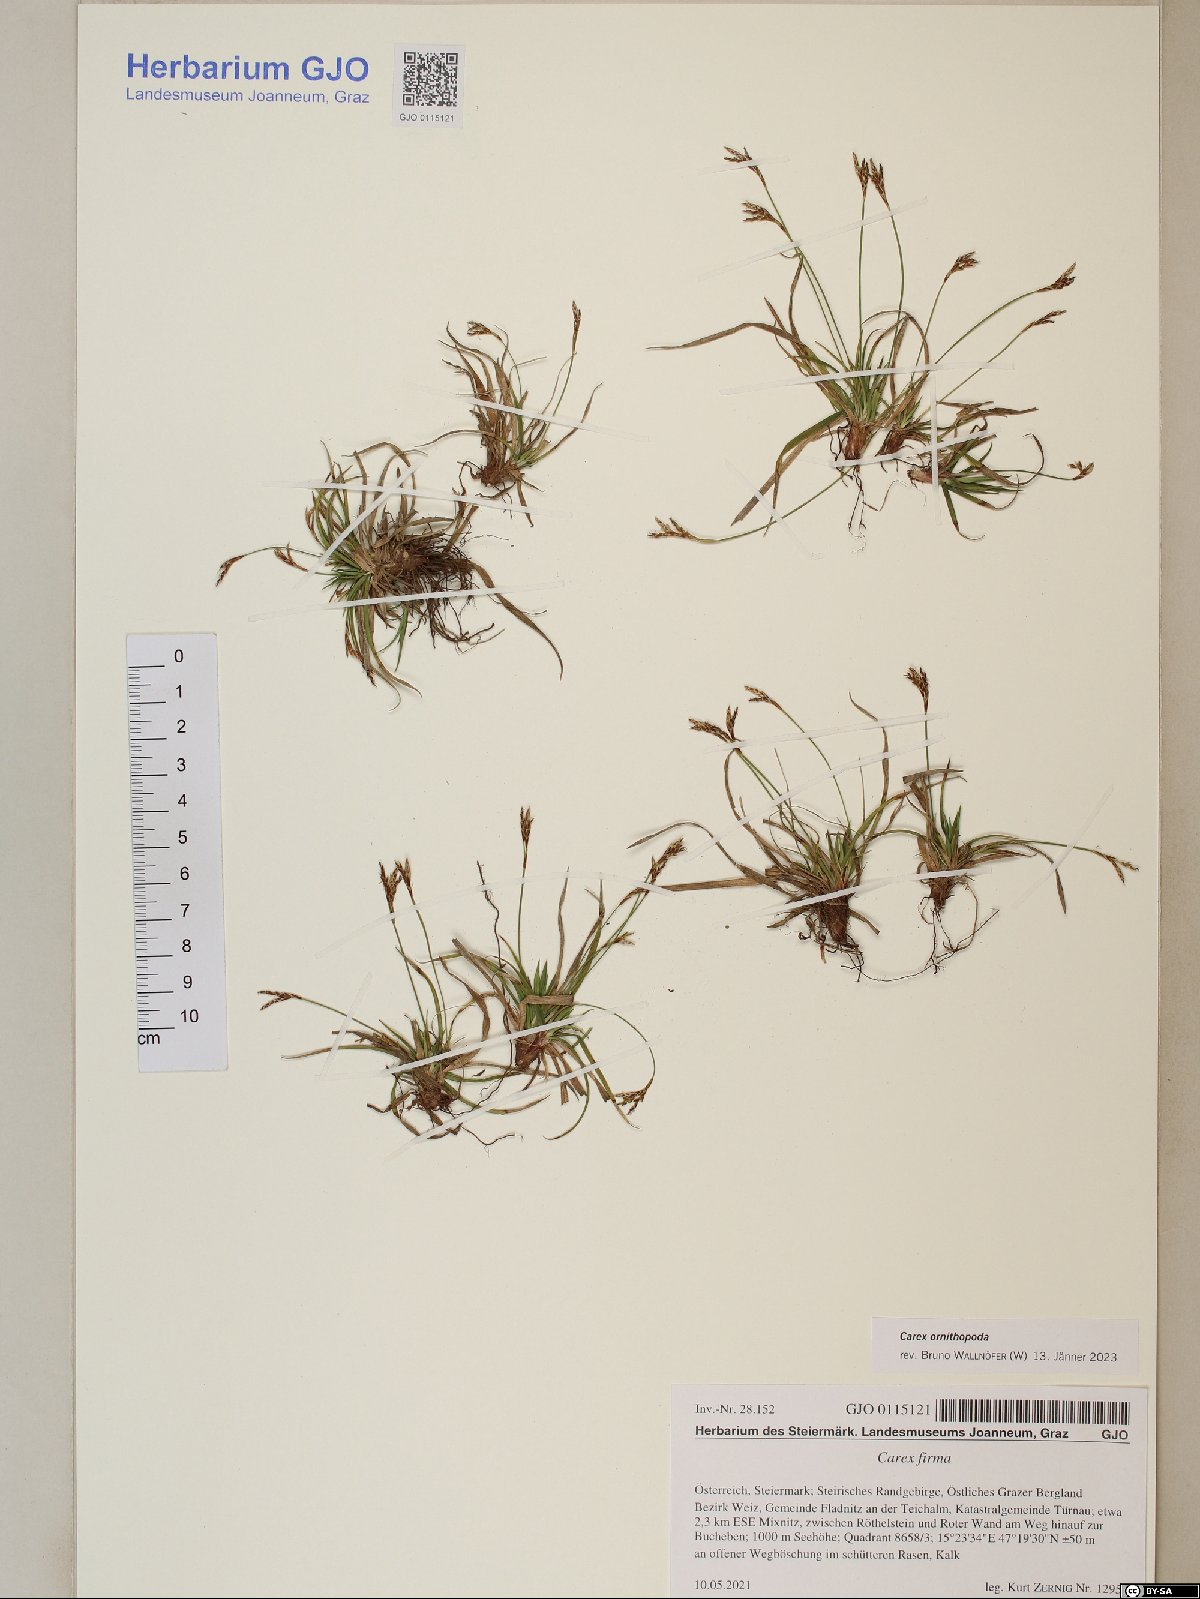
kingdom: Plantae
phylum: Tracheophyta
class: Liliopsida
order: Poales
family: Cyperaceae
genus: Carex
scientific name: Carex ornithopoda
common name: Bird's-foot sedge
